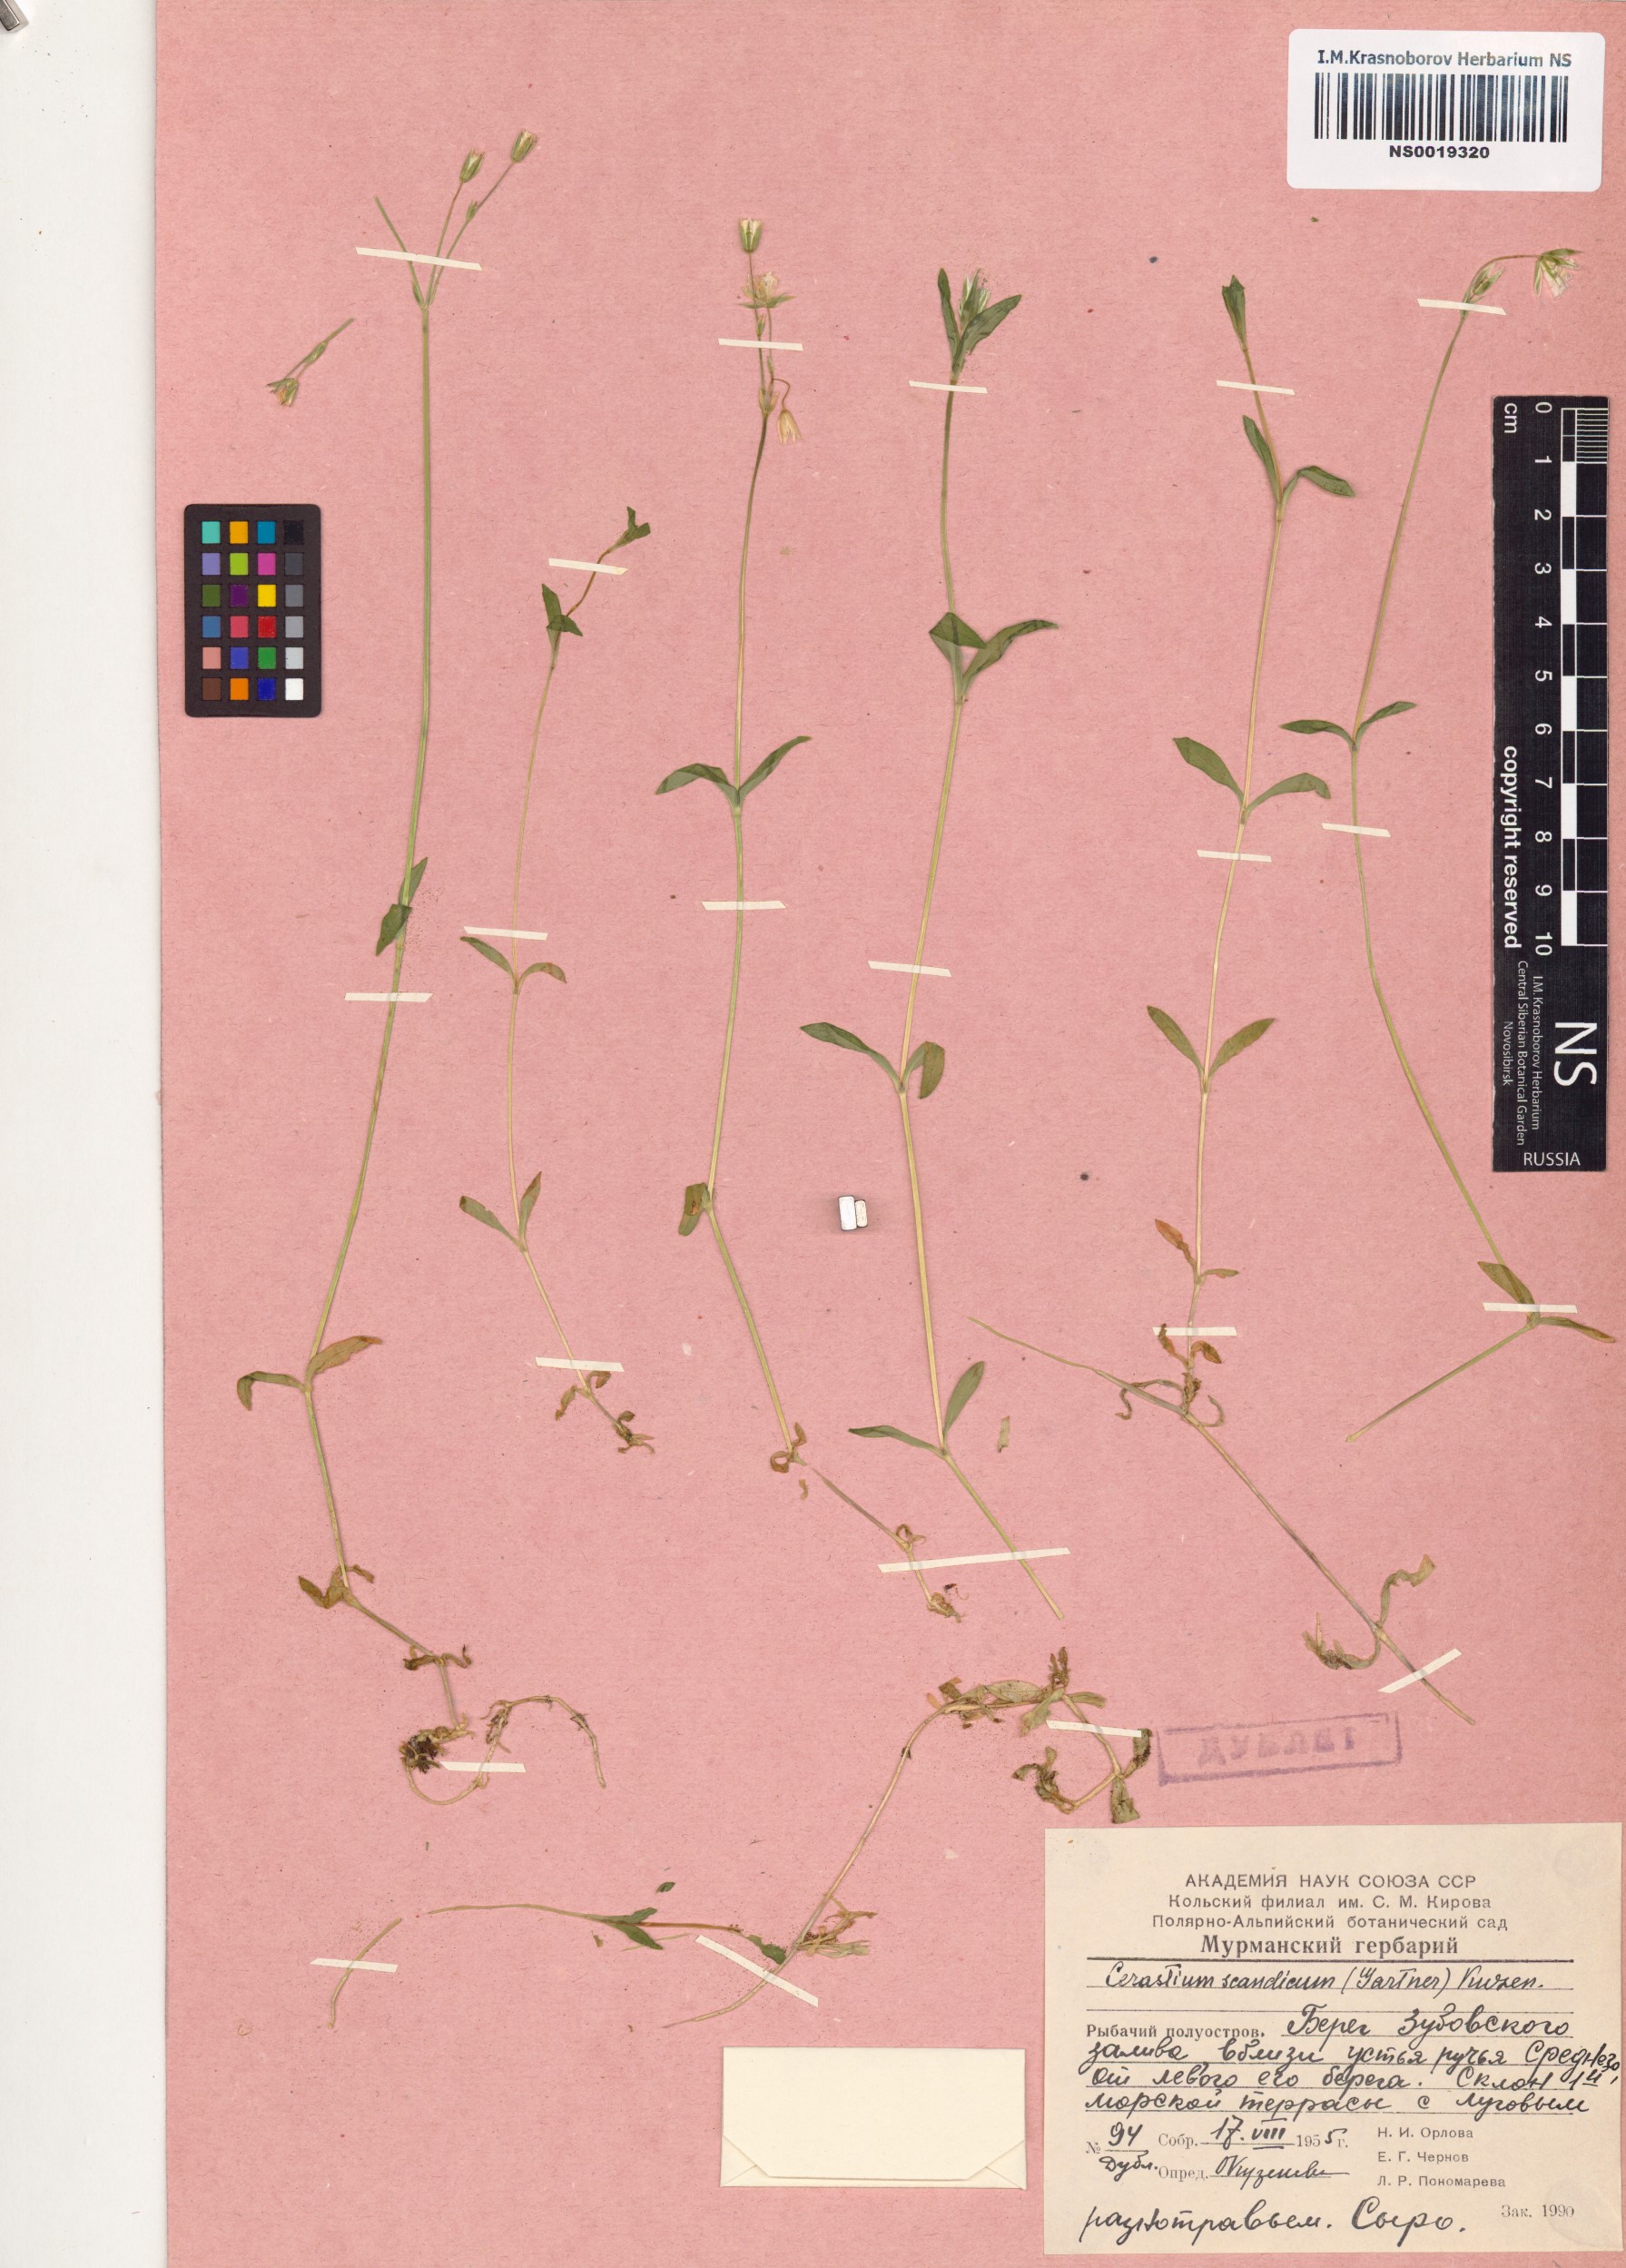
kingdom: Plantae
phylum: Tracheophyta
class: Magnoliopsida
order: Caryophyllales
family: Caryophyllaceae
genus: Cerastium
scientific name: Cerastium holosteoides
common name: Big chickweed
